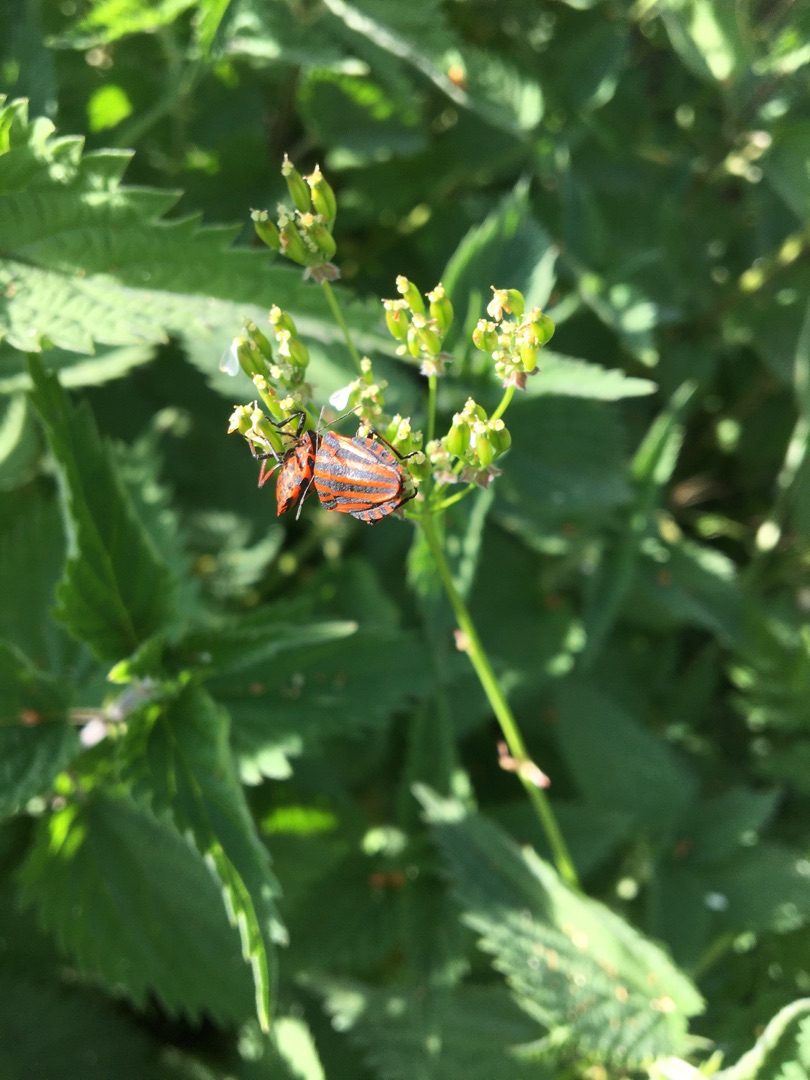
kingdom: Animalia
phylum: Arthropoda
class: Insecta
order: Hemiptera
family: Pentatomidae
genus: Graphosoma
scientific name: Graphosoma italicum
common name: Stribetæge
